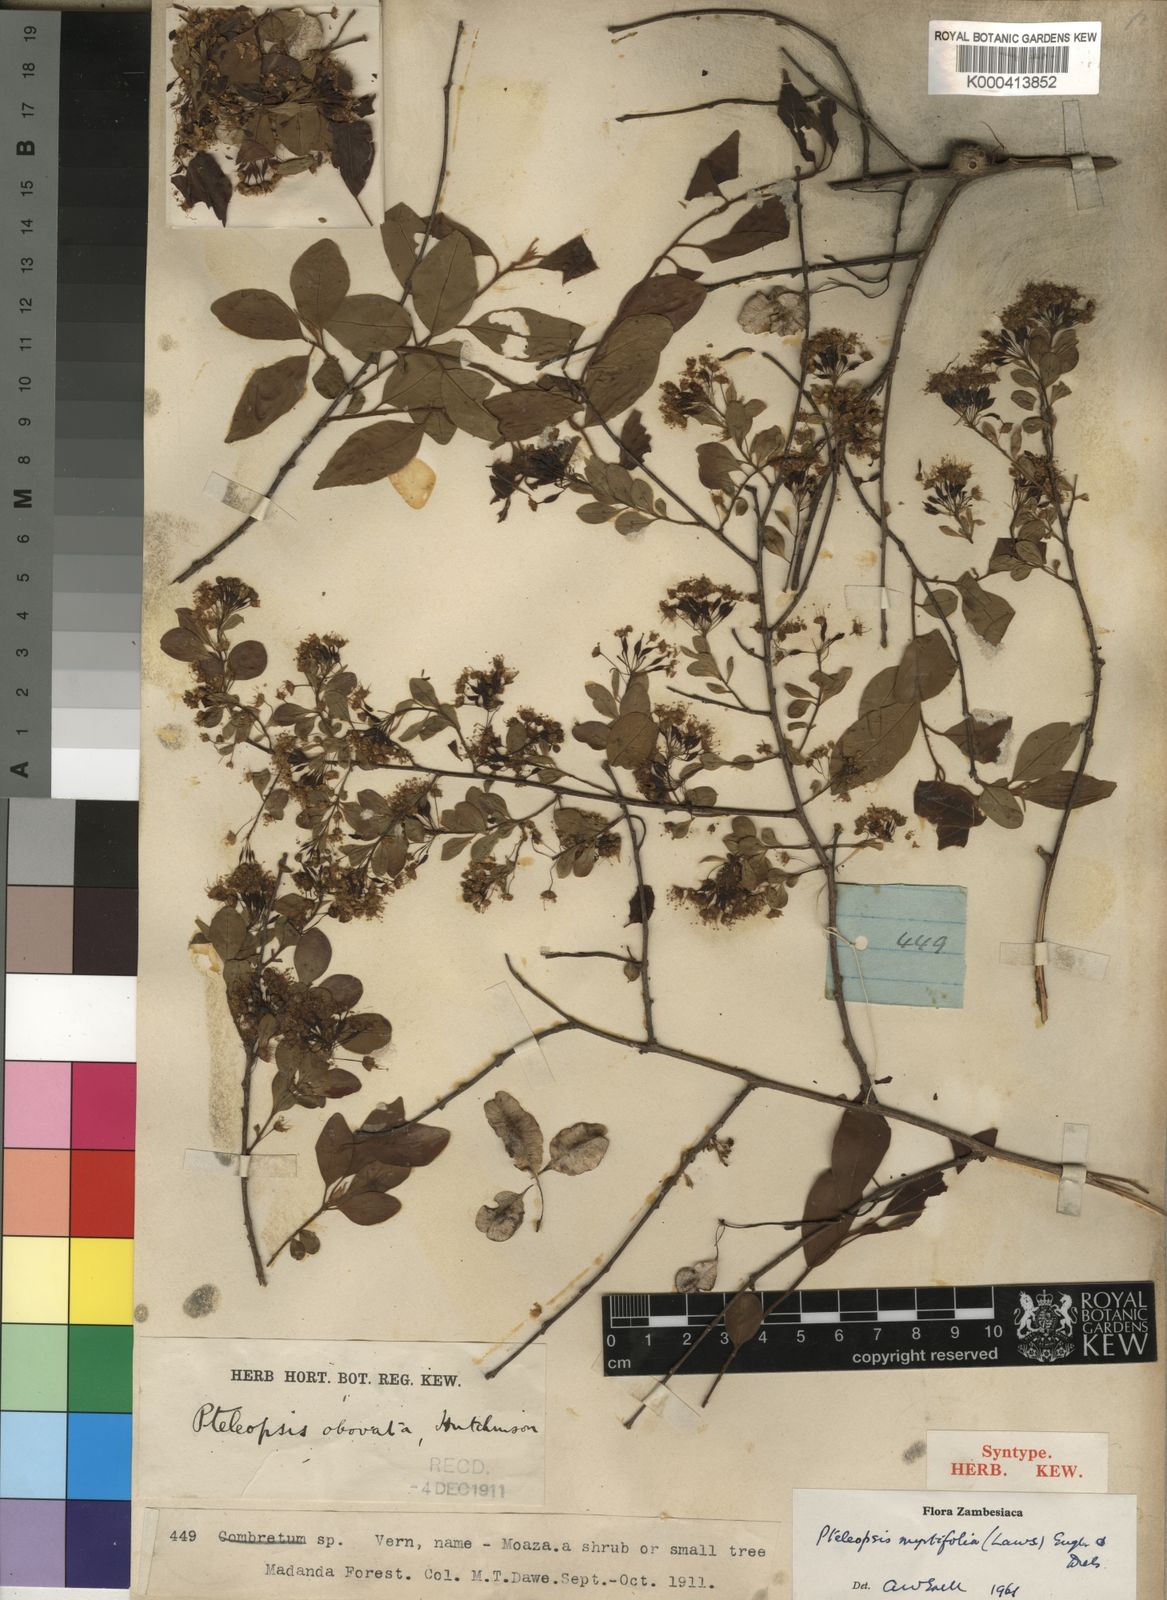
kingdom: Plantae
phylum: Tracheophyta
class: Magnoliopsida
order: Myrtales
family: Combretaceae
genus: Terminalia
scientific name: Terminalia myrtifolia
